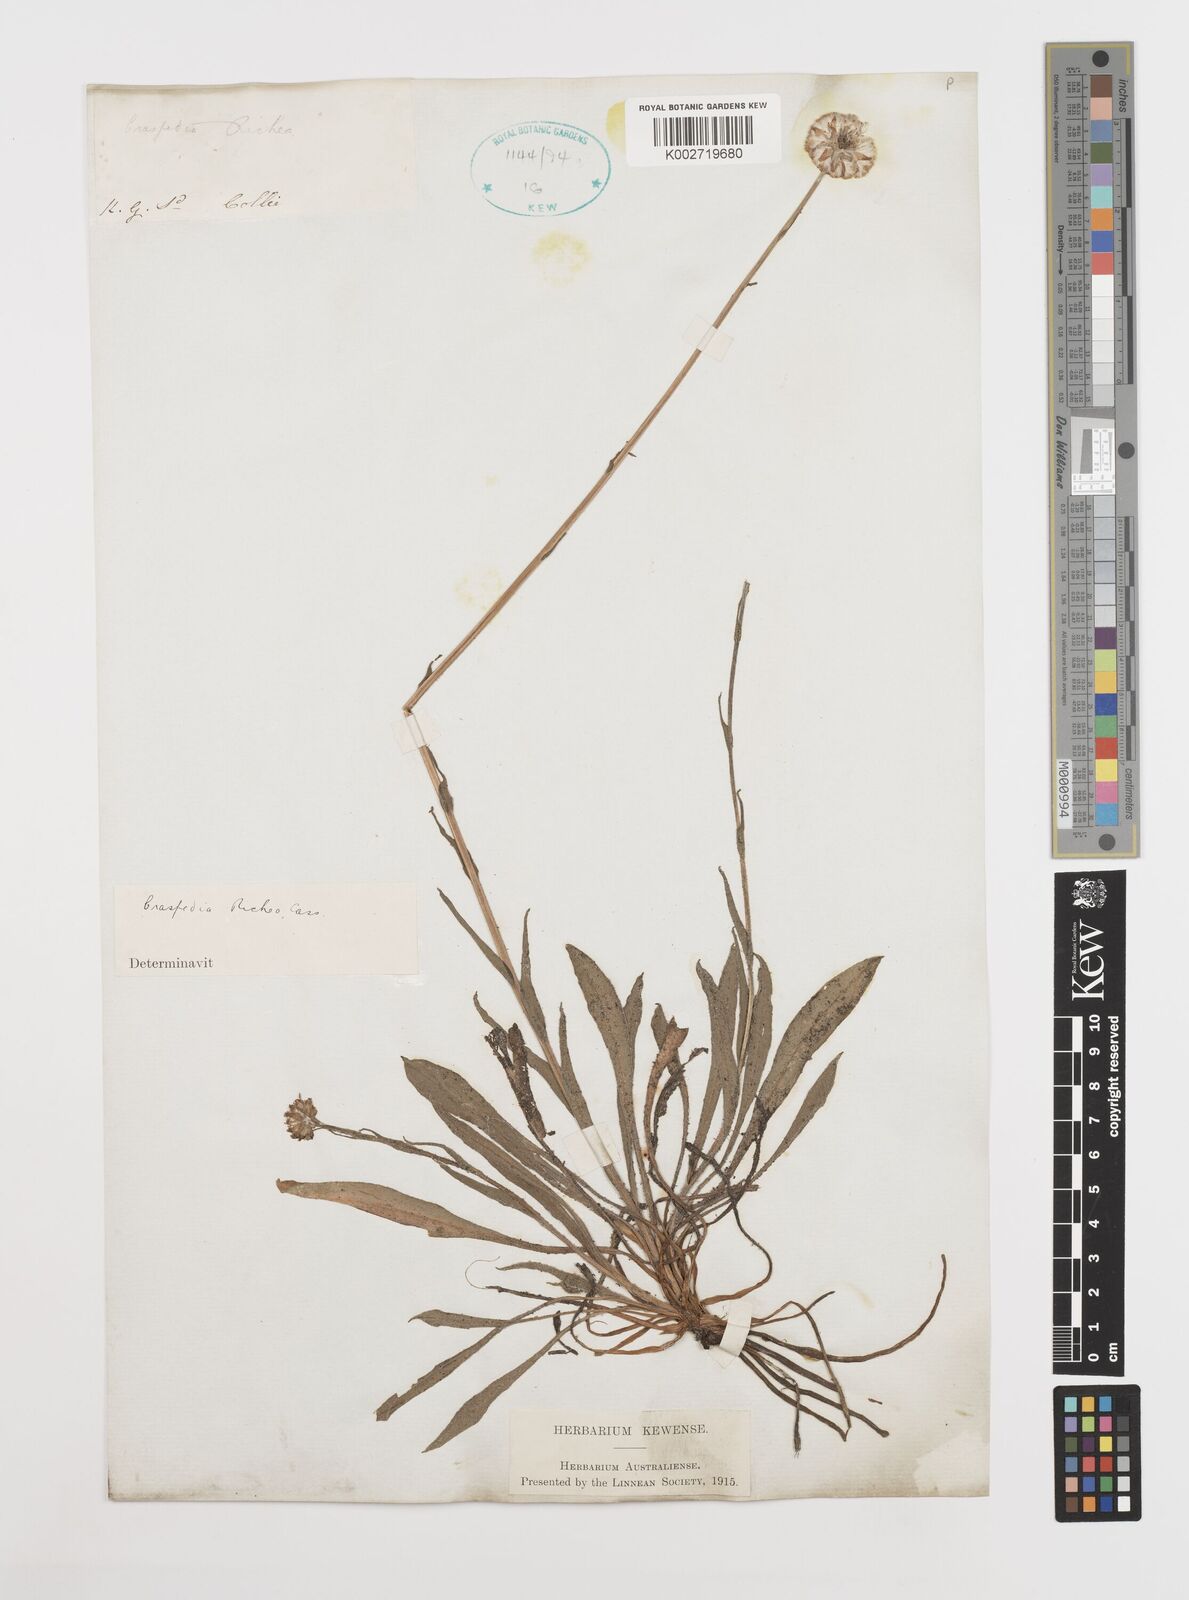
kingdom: Plantae
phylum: Tracheophyta
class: Magnoliopsida
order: Asterales
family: Asteraceae
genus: Craspedia
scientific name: Craspedia glauca
